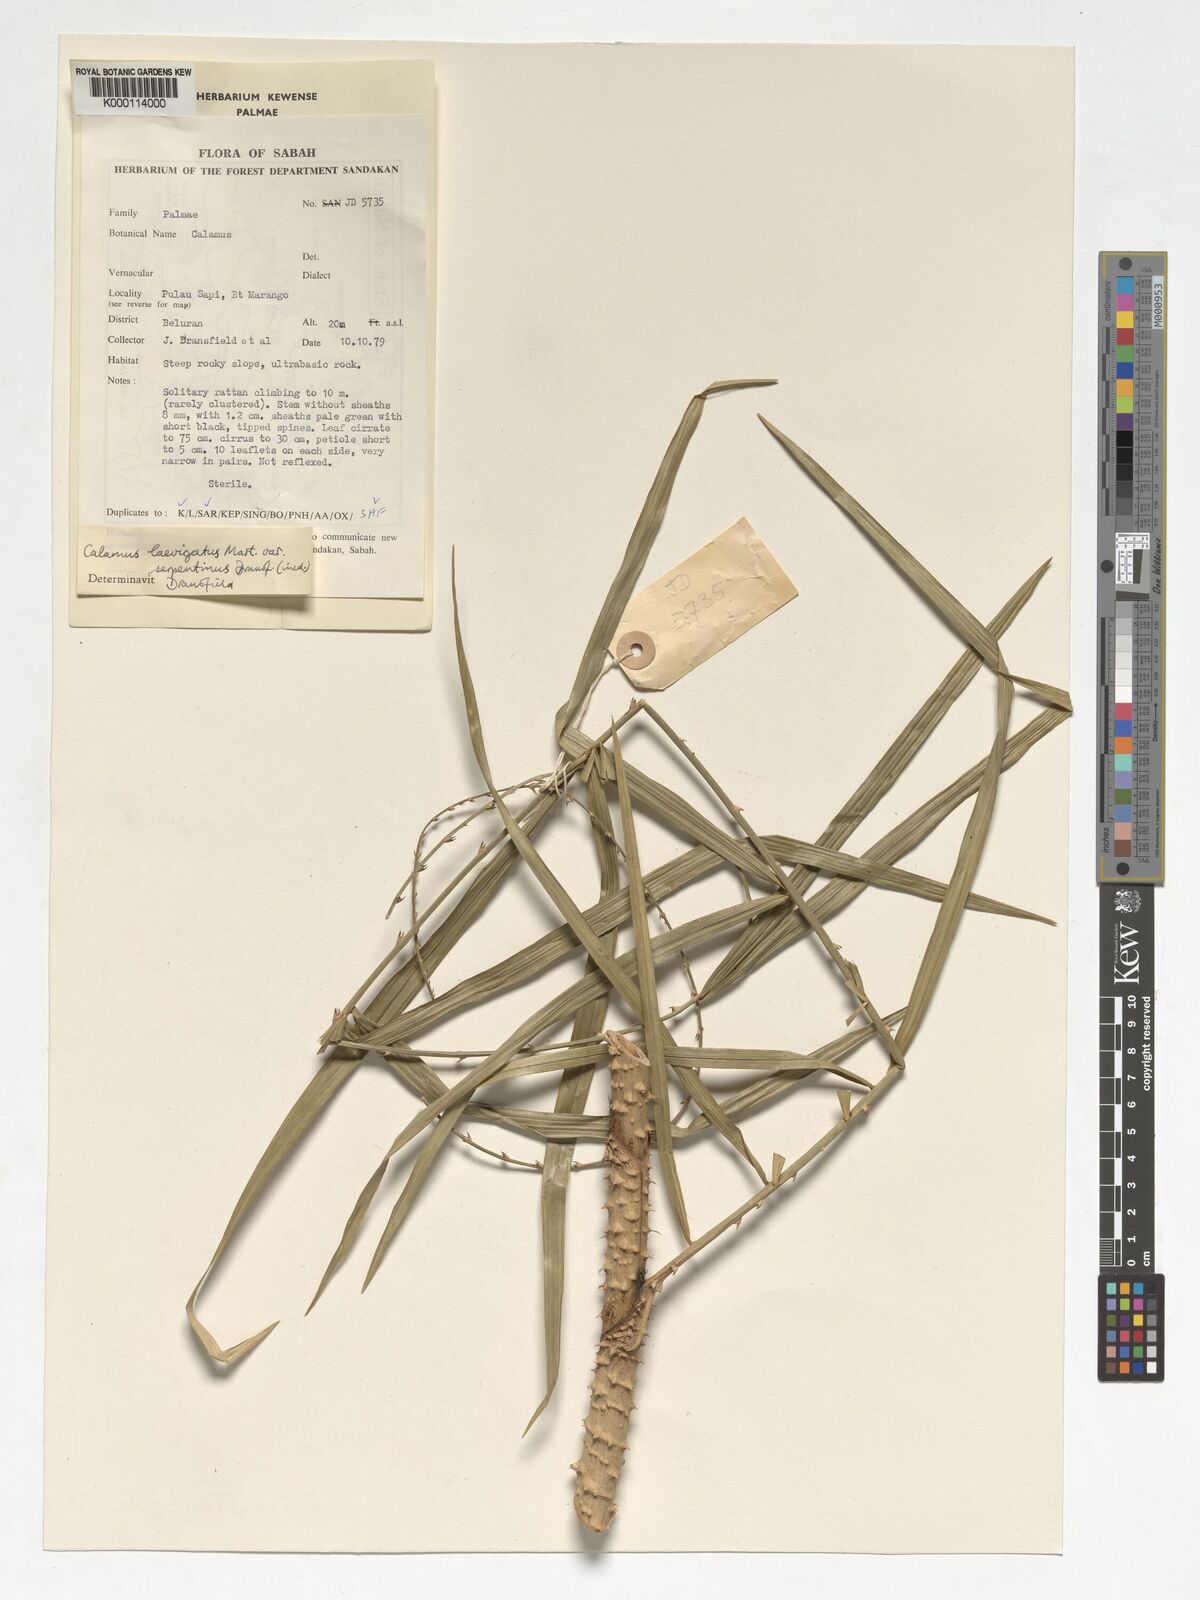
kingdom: Plantae
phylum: Tracheophyta
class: Liliopsida
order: Arecales
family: Arecaceae
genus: Calamus
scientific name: Calamus plicatus
